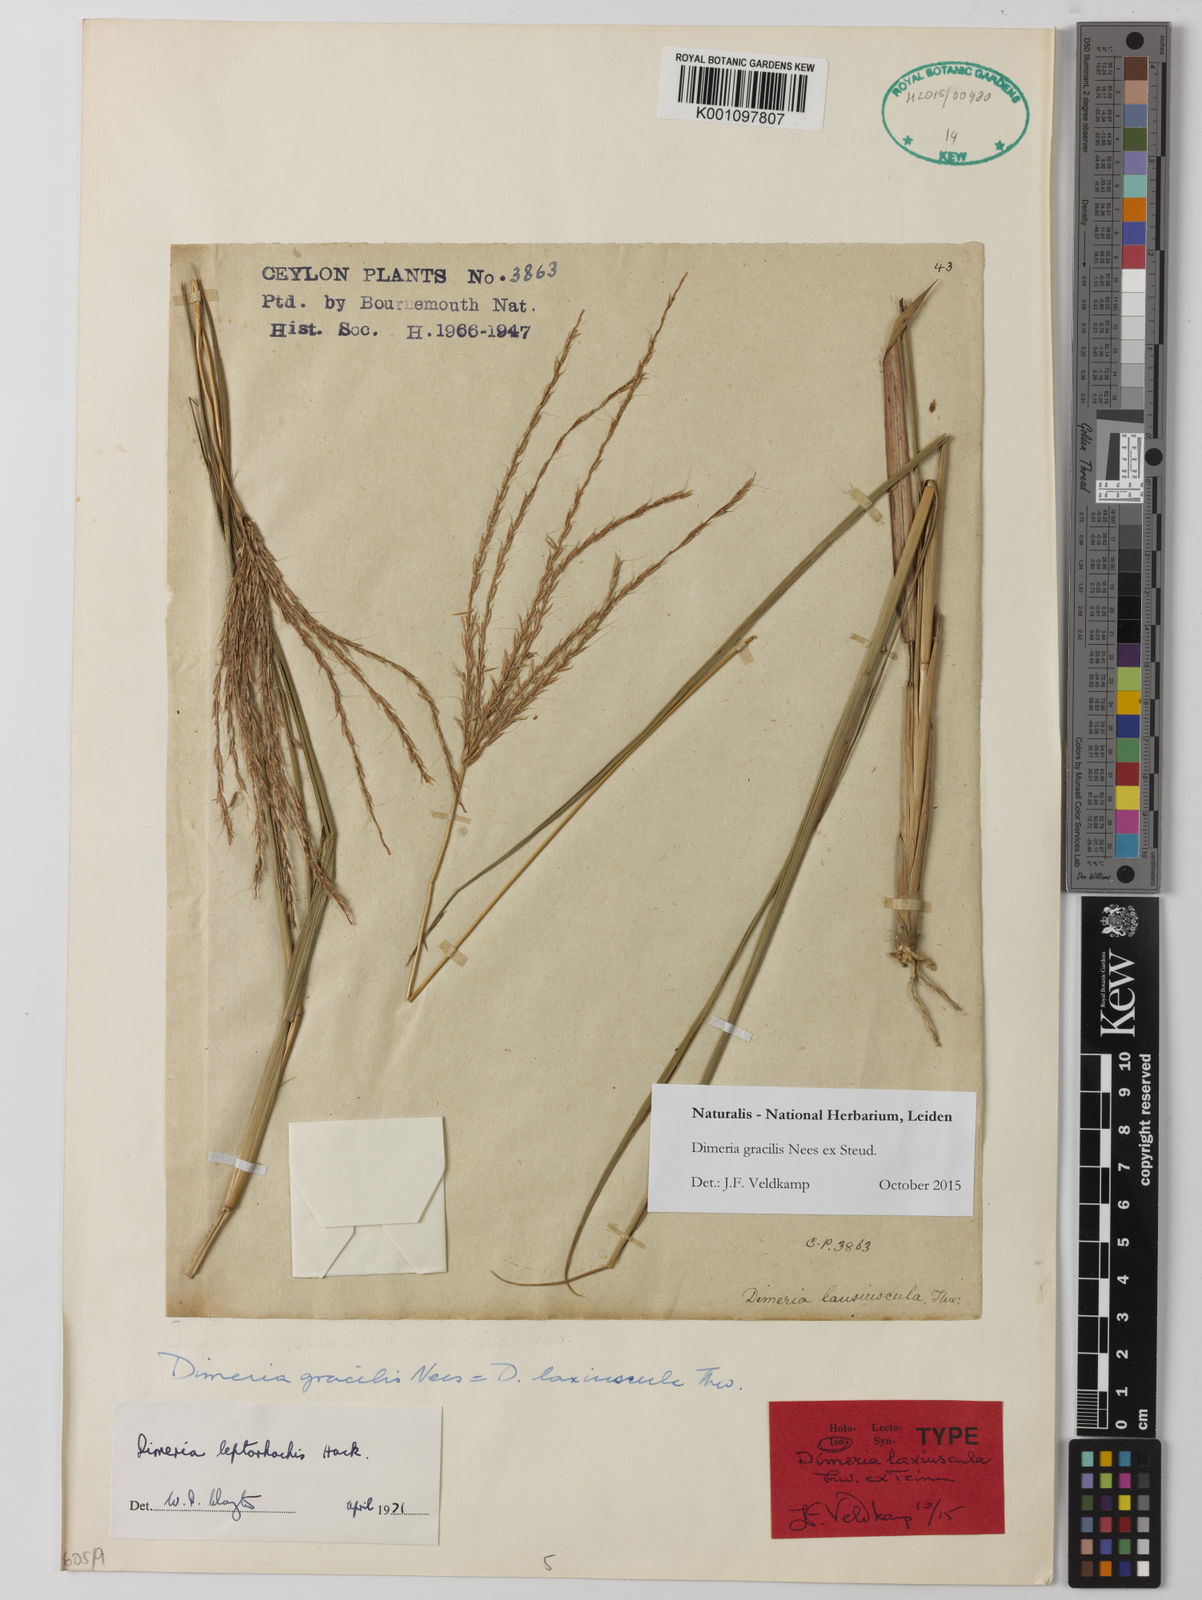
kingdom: Plantae
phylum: Tracheophyta
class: Liliopsida
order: Poales
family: Poaceae
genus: Dimeria
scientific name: Dimeria gracilis
